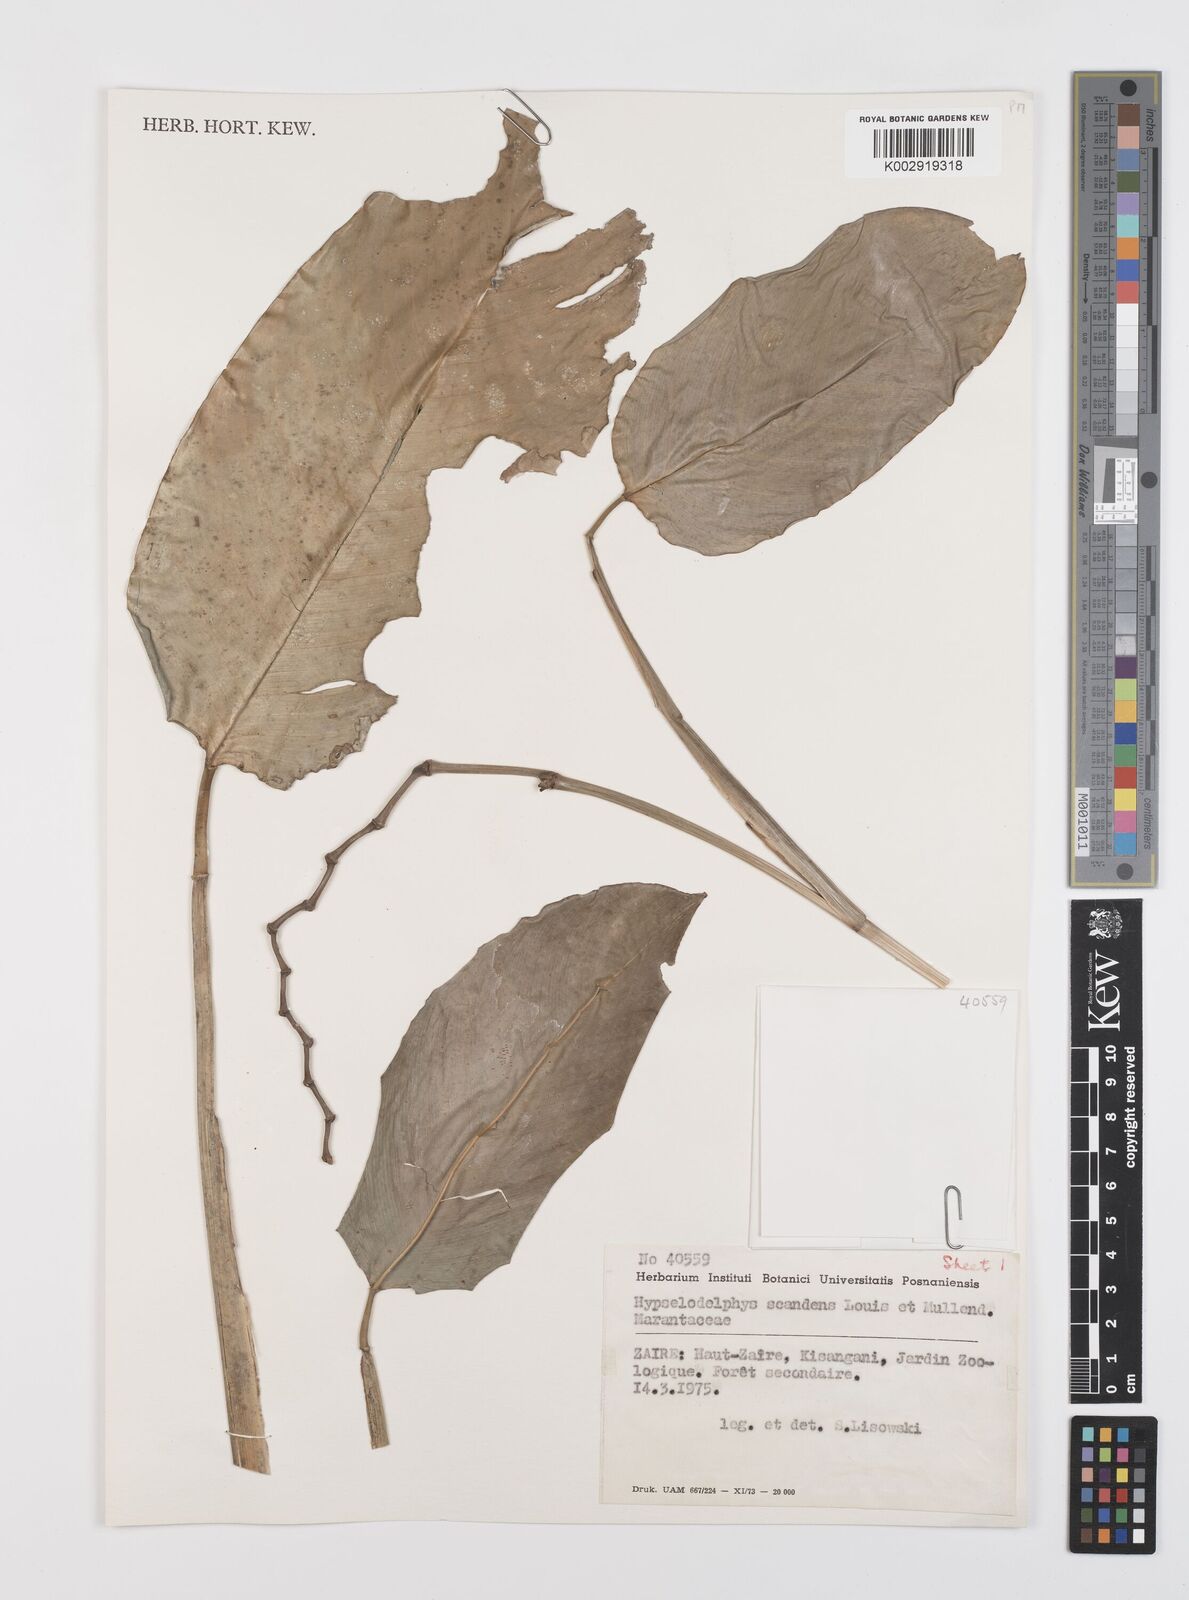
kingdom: Plantae
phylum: Tracheophyta
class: Liliopsida
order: Zingiberales
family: Marantaceae
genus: Hypselodelphys
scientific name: Hypselodelphys scandens
